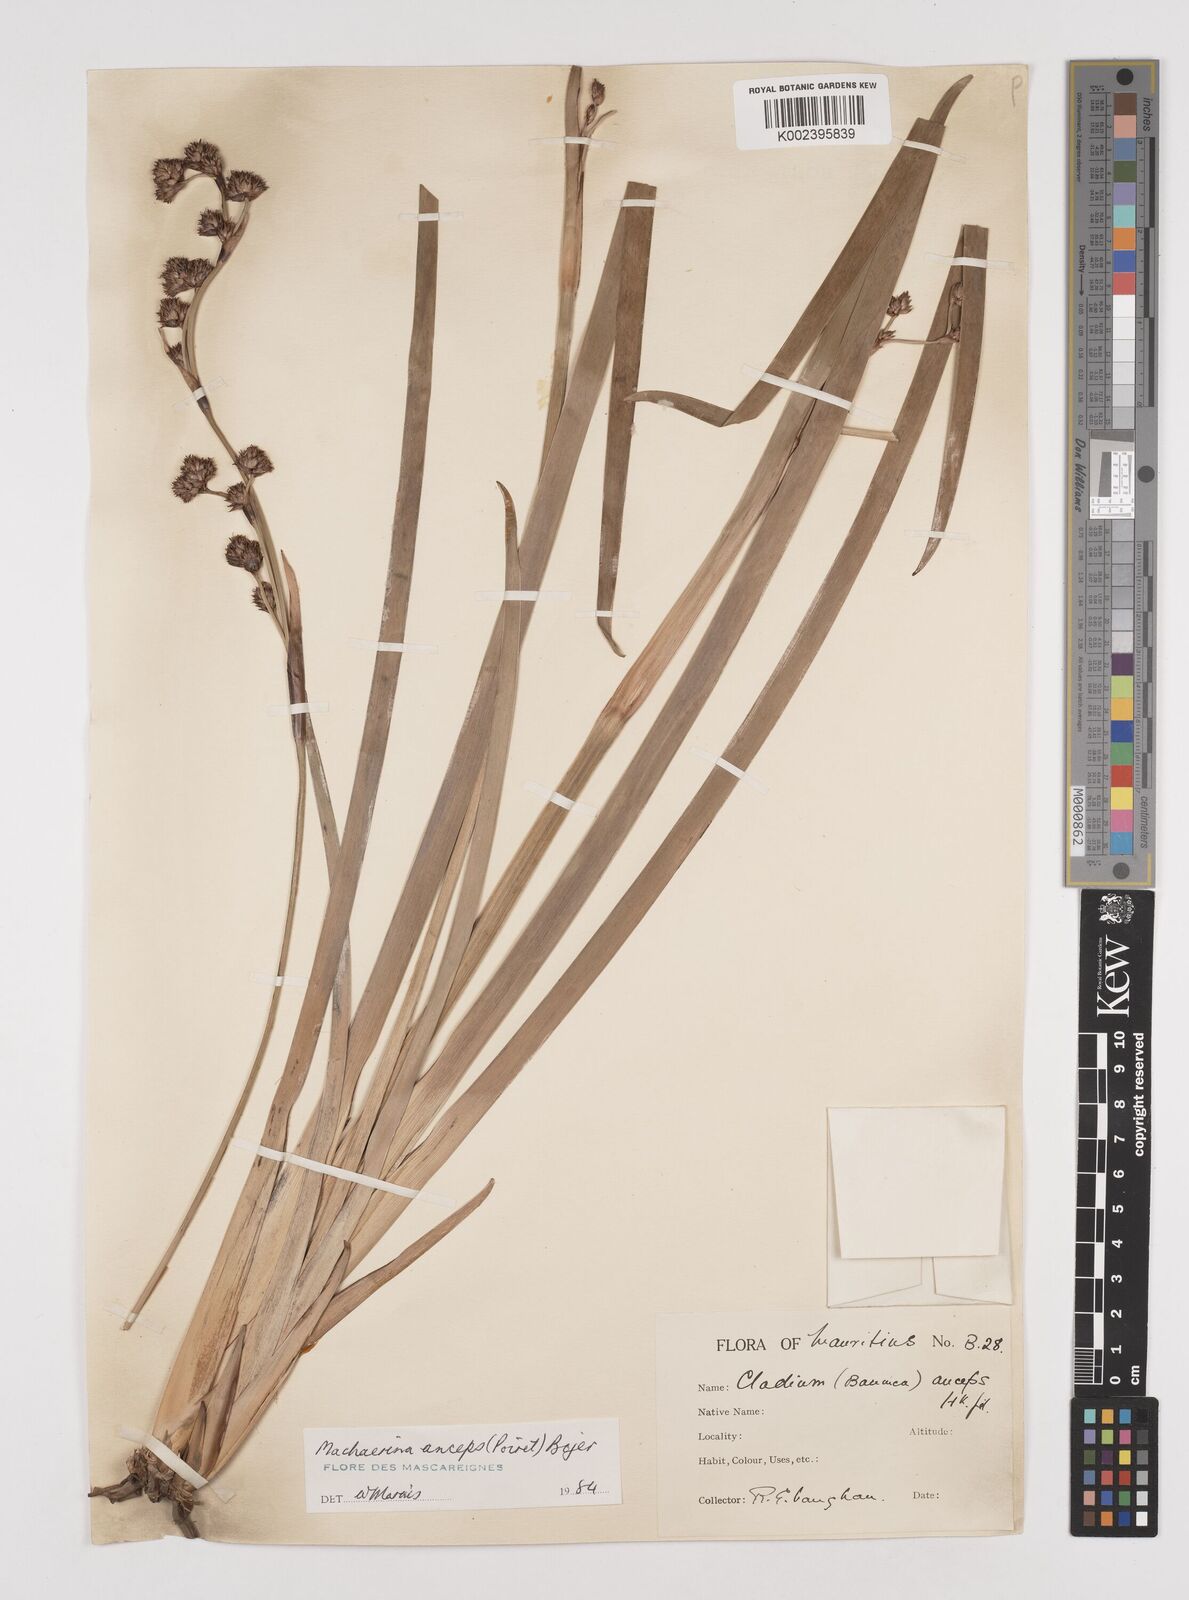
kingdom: Plantae
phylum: Tracheophyta
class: Liliopsida
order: Poales
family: Cyperaceae
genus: Machaerina
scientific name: Machaerina anceps
